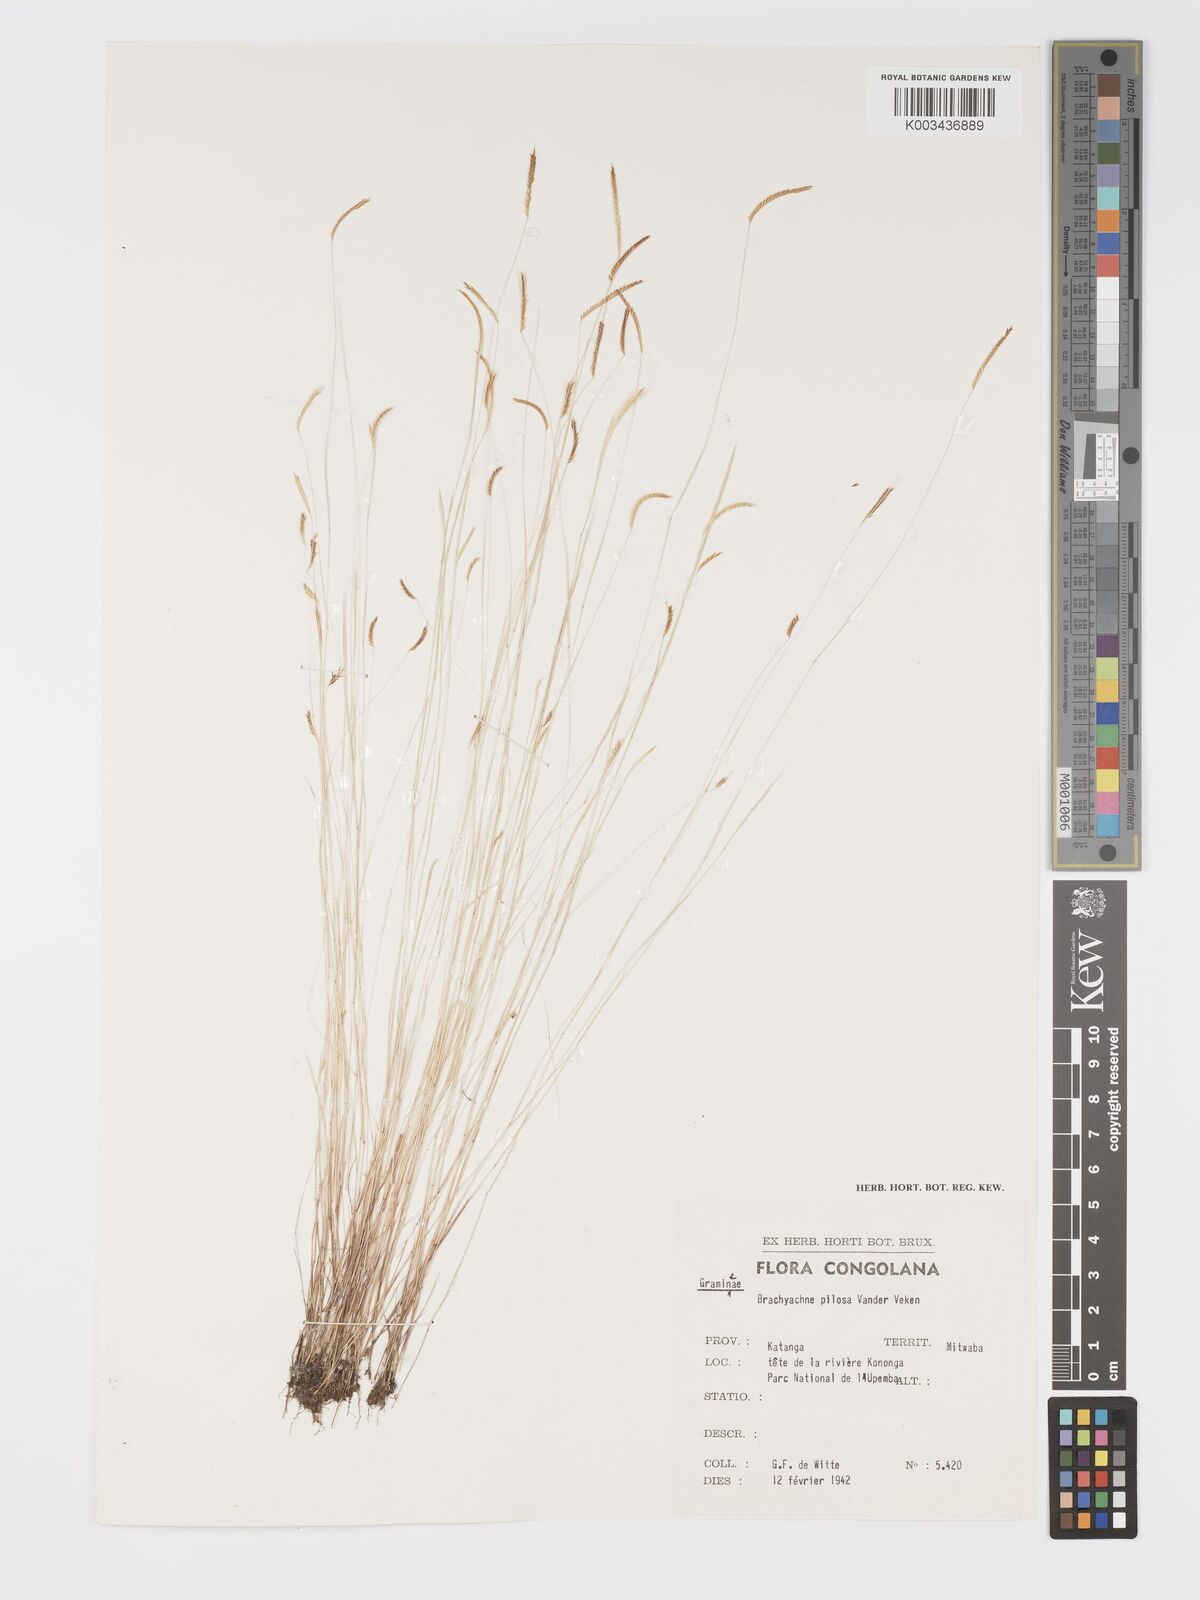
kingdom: Plantae
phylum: Tracheophyta
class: Liliopsida
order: Poales
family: Poaceae
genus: Micrachne
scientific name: Micrachne pilosa
